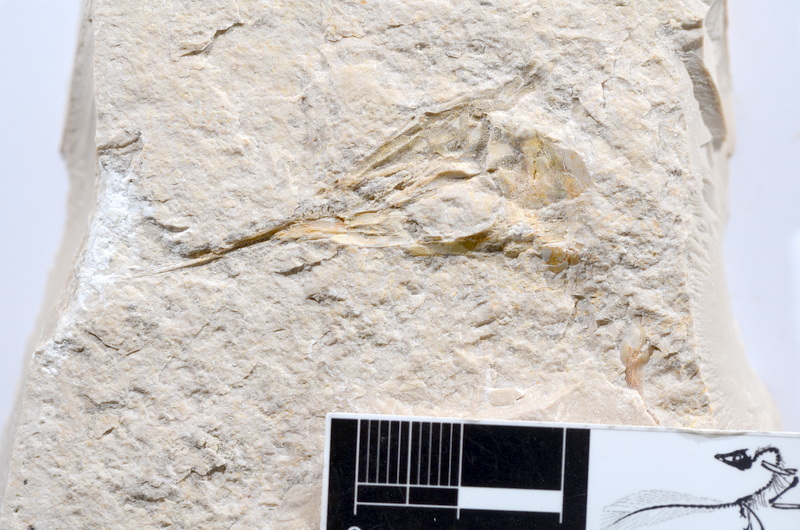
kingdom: Animalia
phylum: Chordata
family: Aspidorhynchidae
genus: Aspidorhynchus
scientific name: Aspidorhynchus acutirostris
